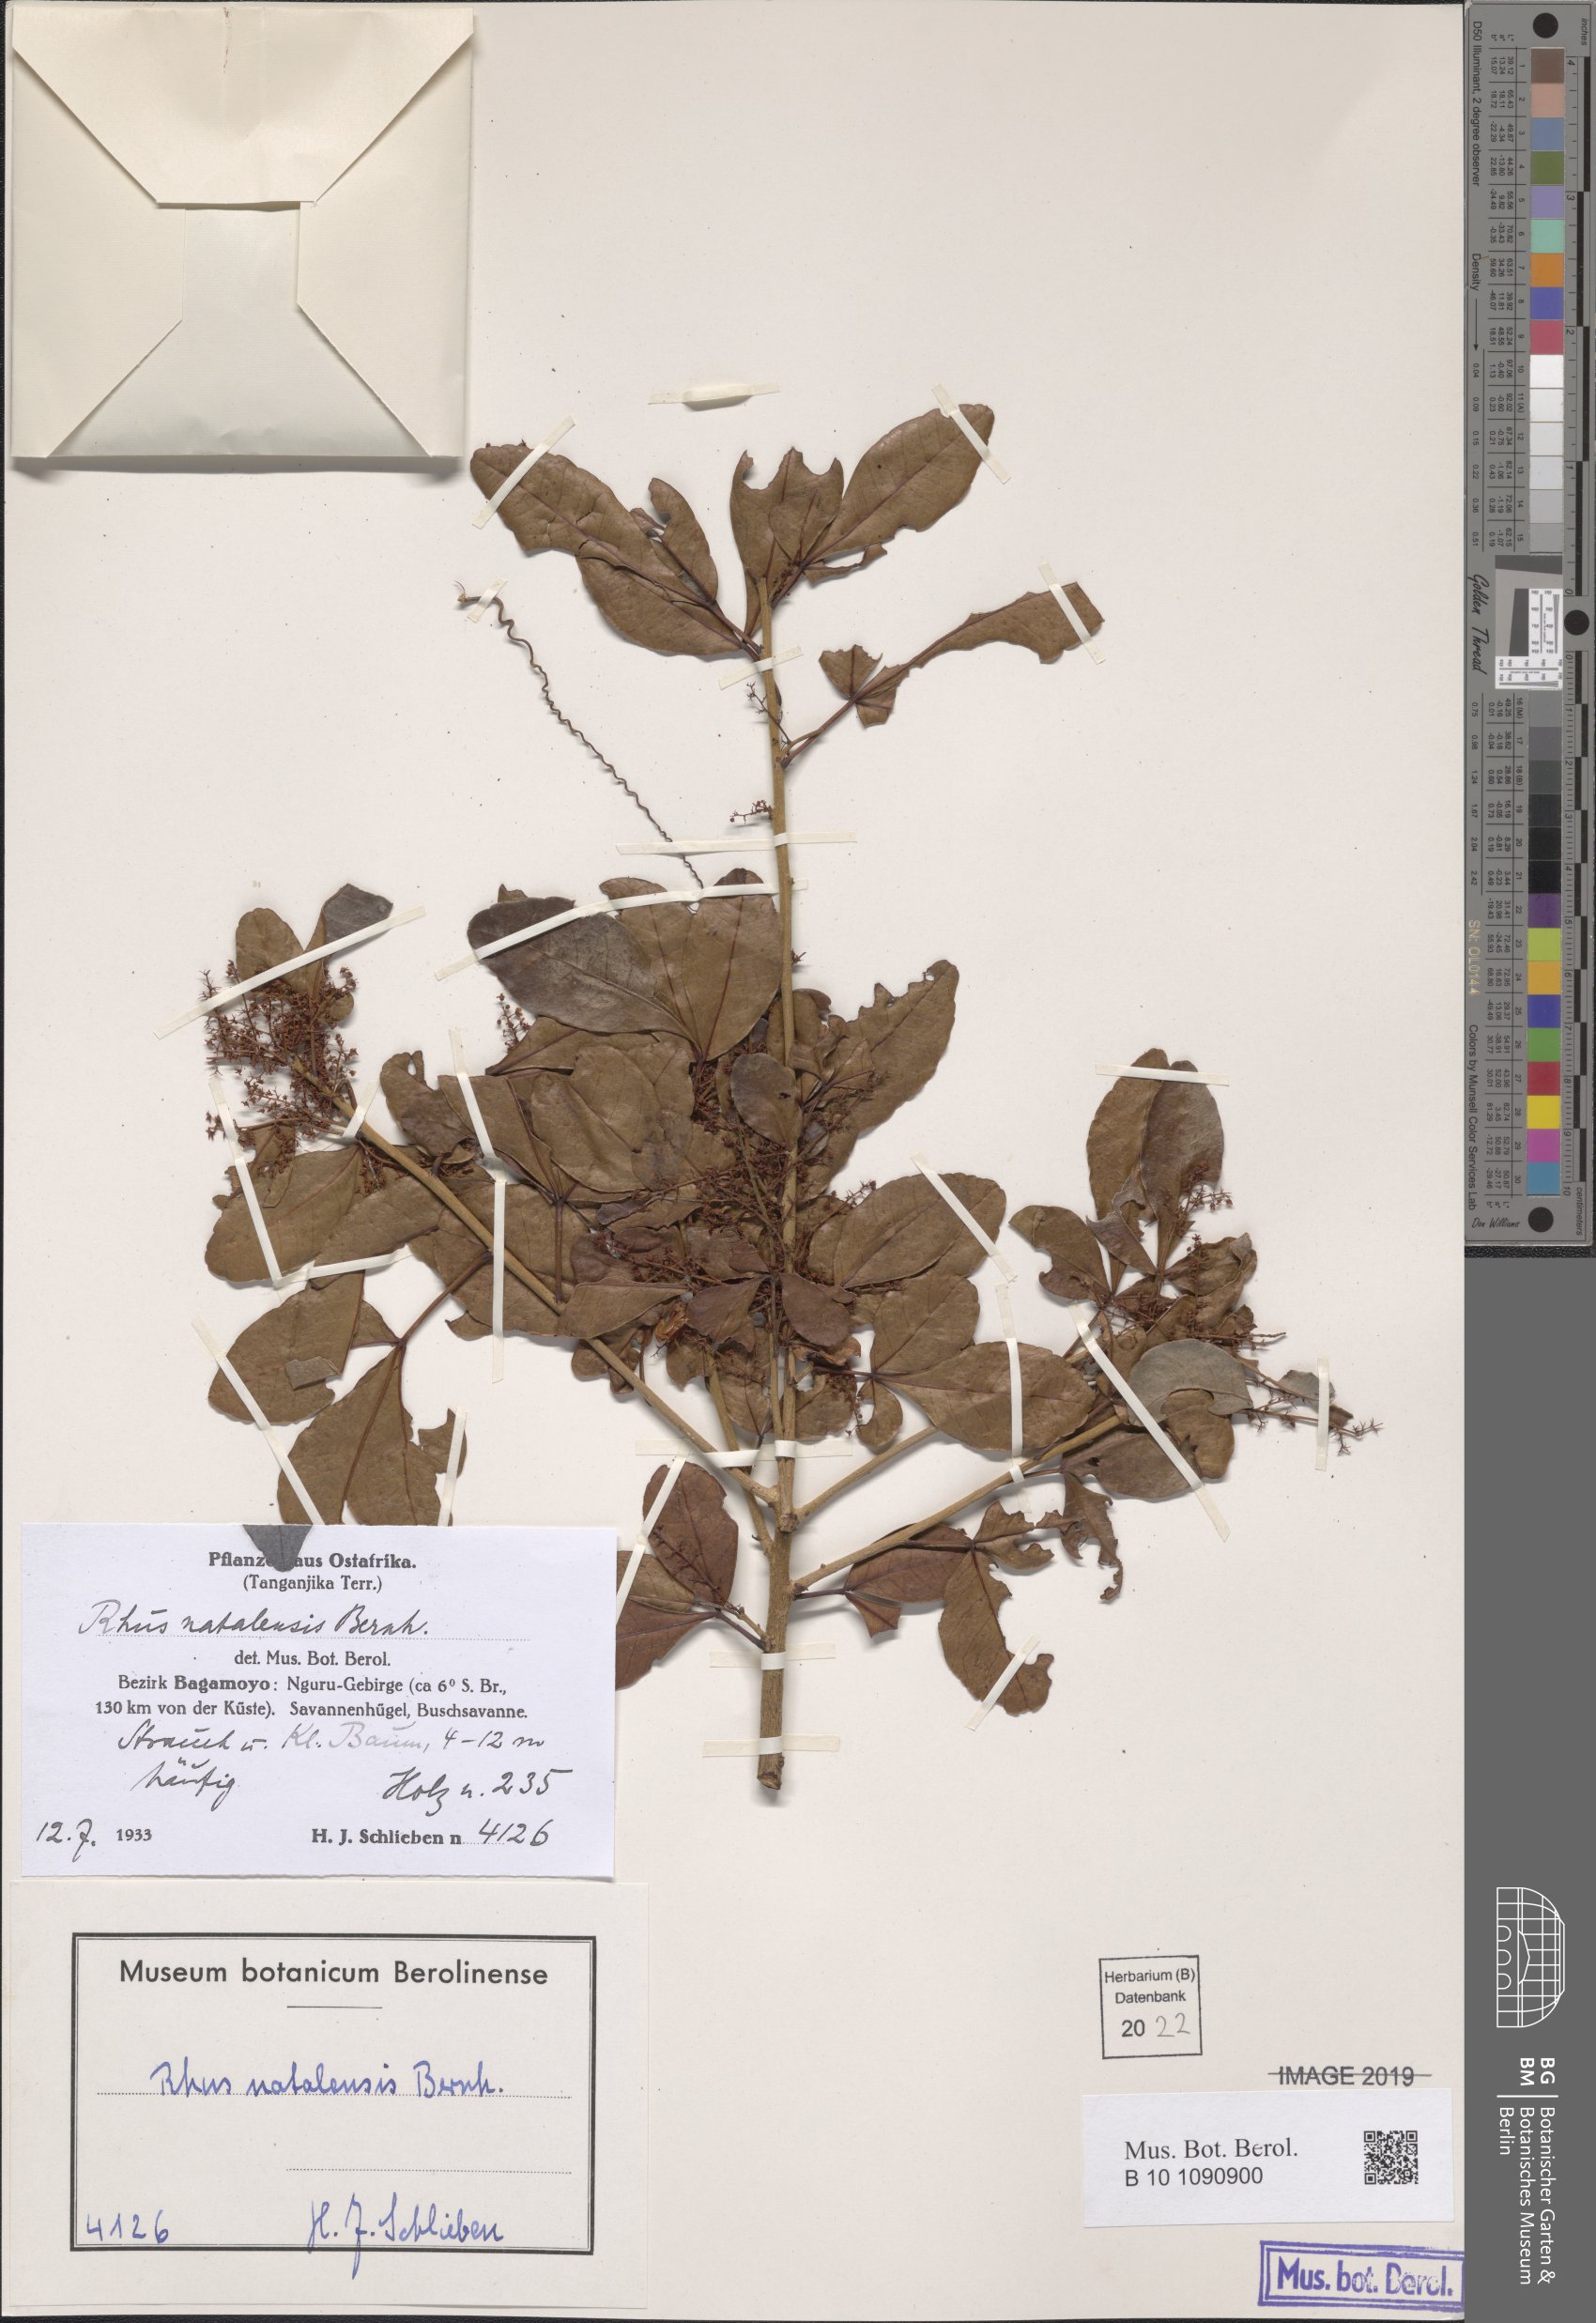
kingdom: Plantae
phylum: Tracheophyta
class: Magnoliopsida
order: Sapindales
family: Anacardiaceae
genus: Searsia
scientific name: Searsia natalensis
